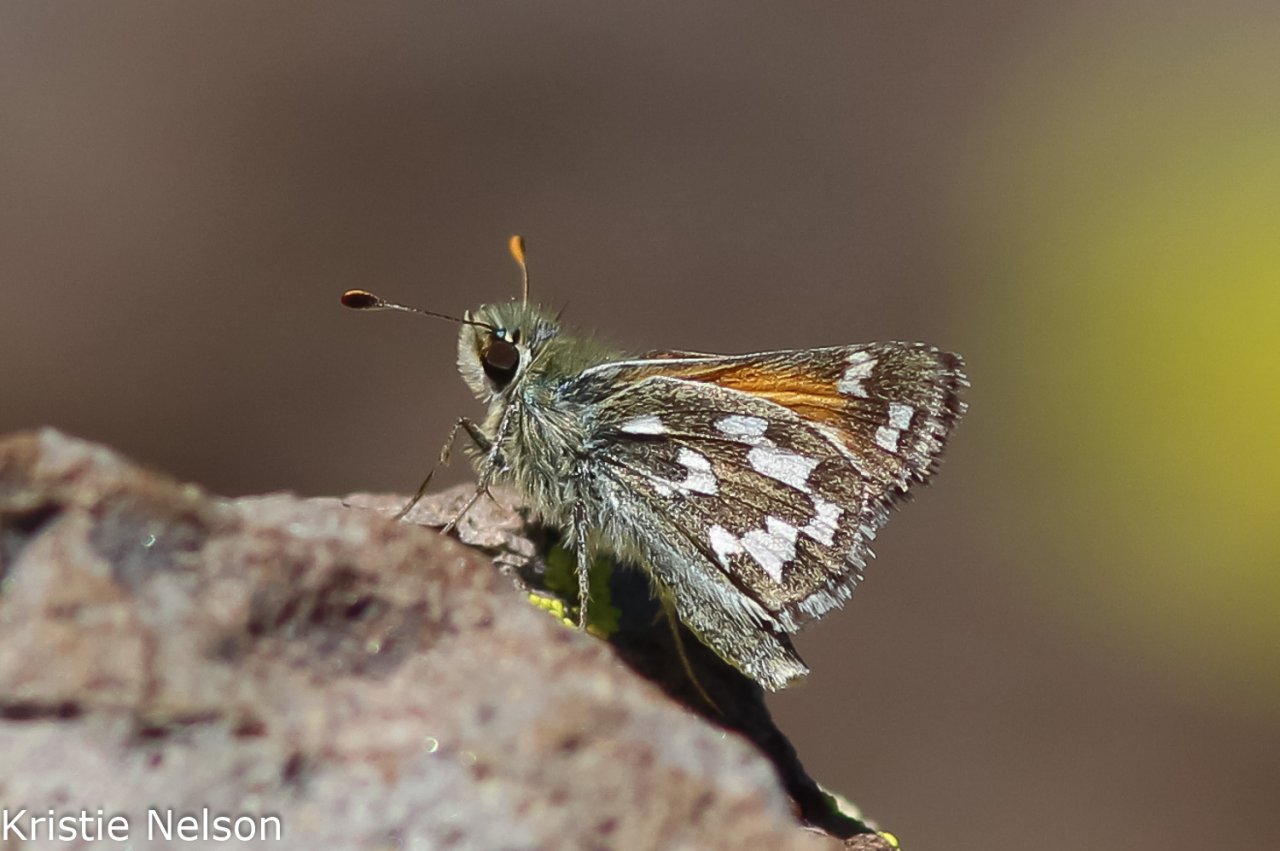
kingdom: Animalia
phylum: Arthropoda
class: Insecta
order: Lepidoptera
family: Hesperiidae
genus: Hesperia
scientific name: Hesperia nevada
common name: Nevada Skipper
